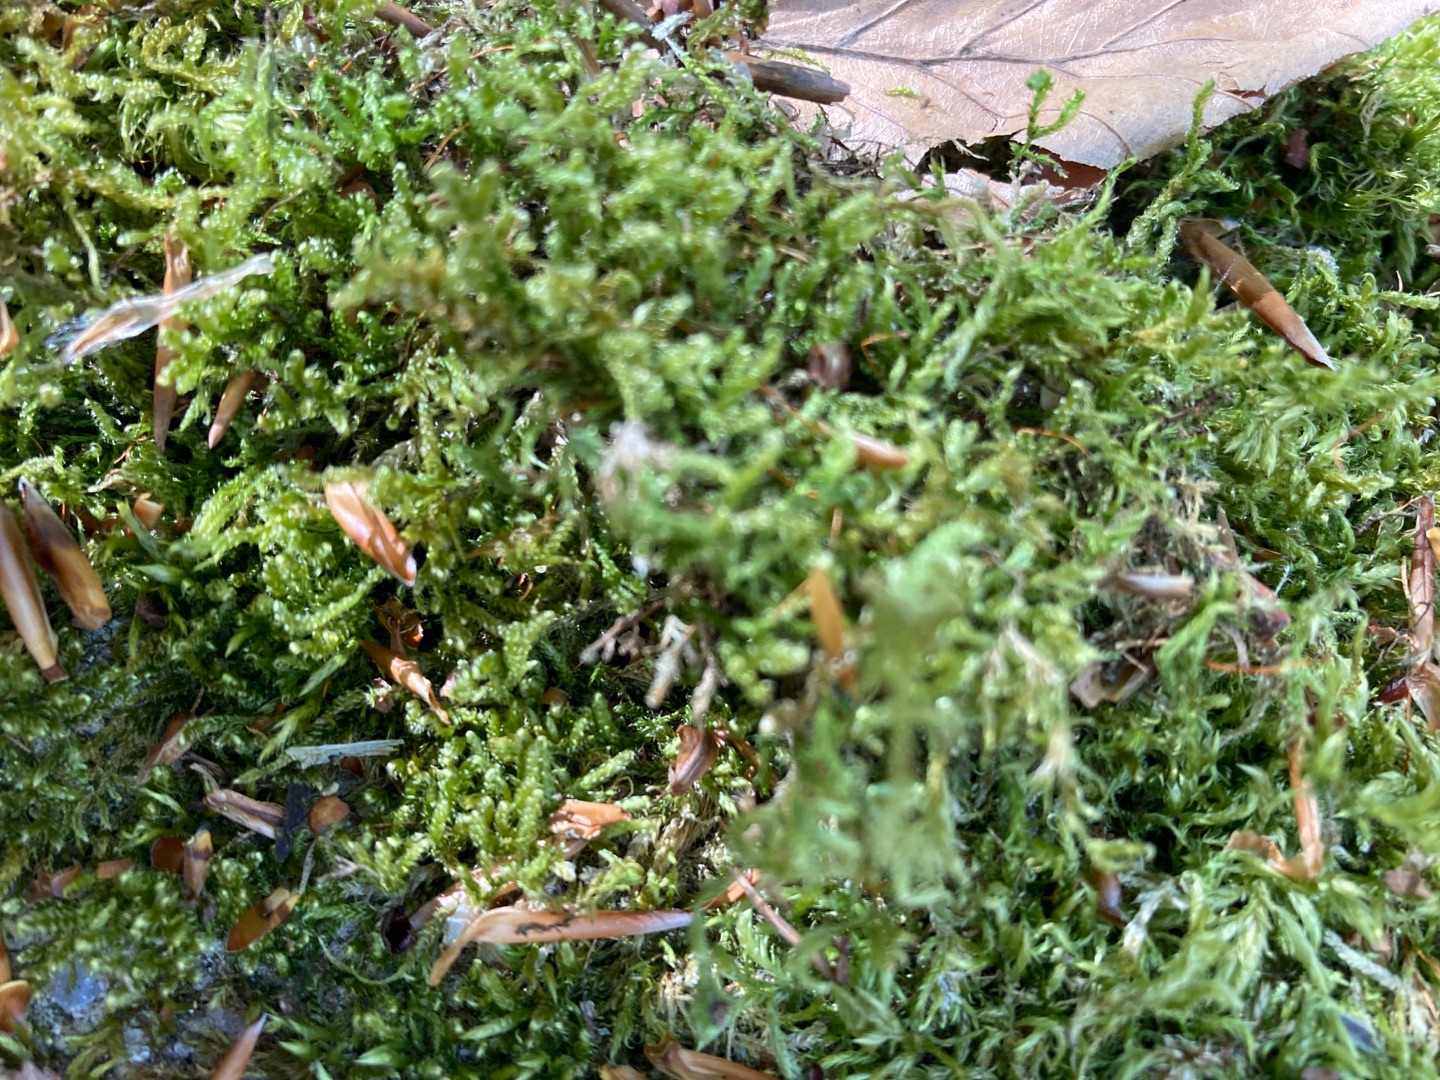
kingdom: Plantae
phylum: Bryophyta
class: Bryopsida
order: Hypnales
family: Hypnaceae
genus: Hypnum
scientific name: Hypnum cupressiforme
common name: Almindelig cypresmos
